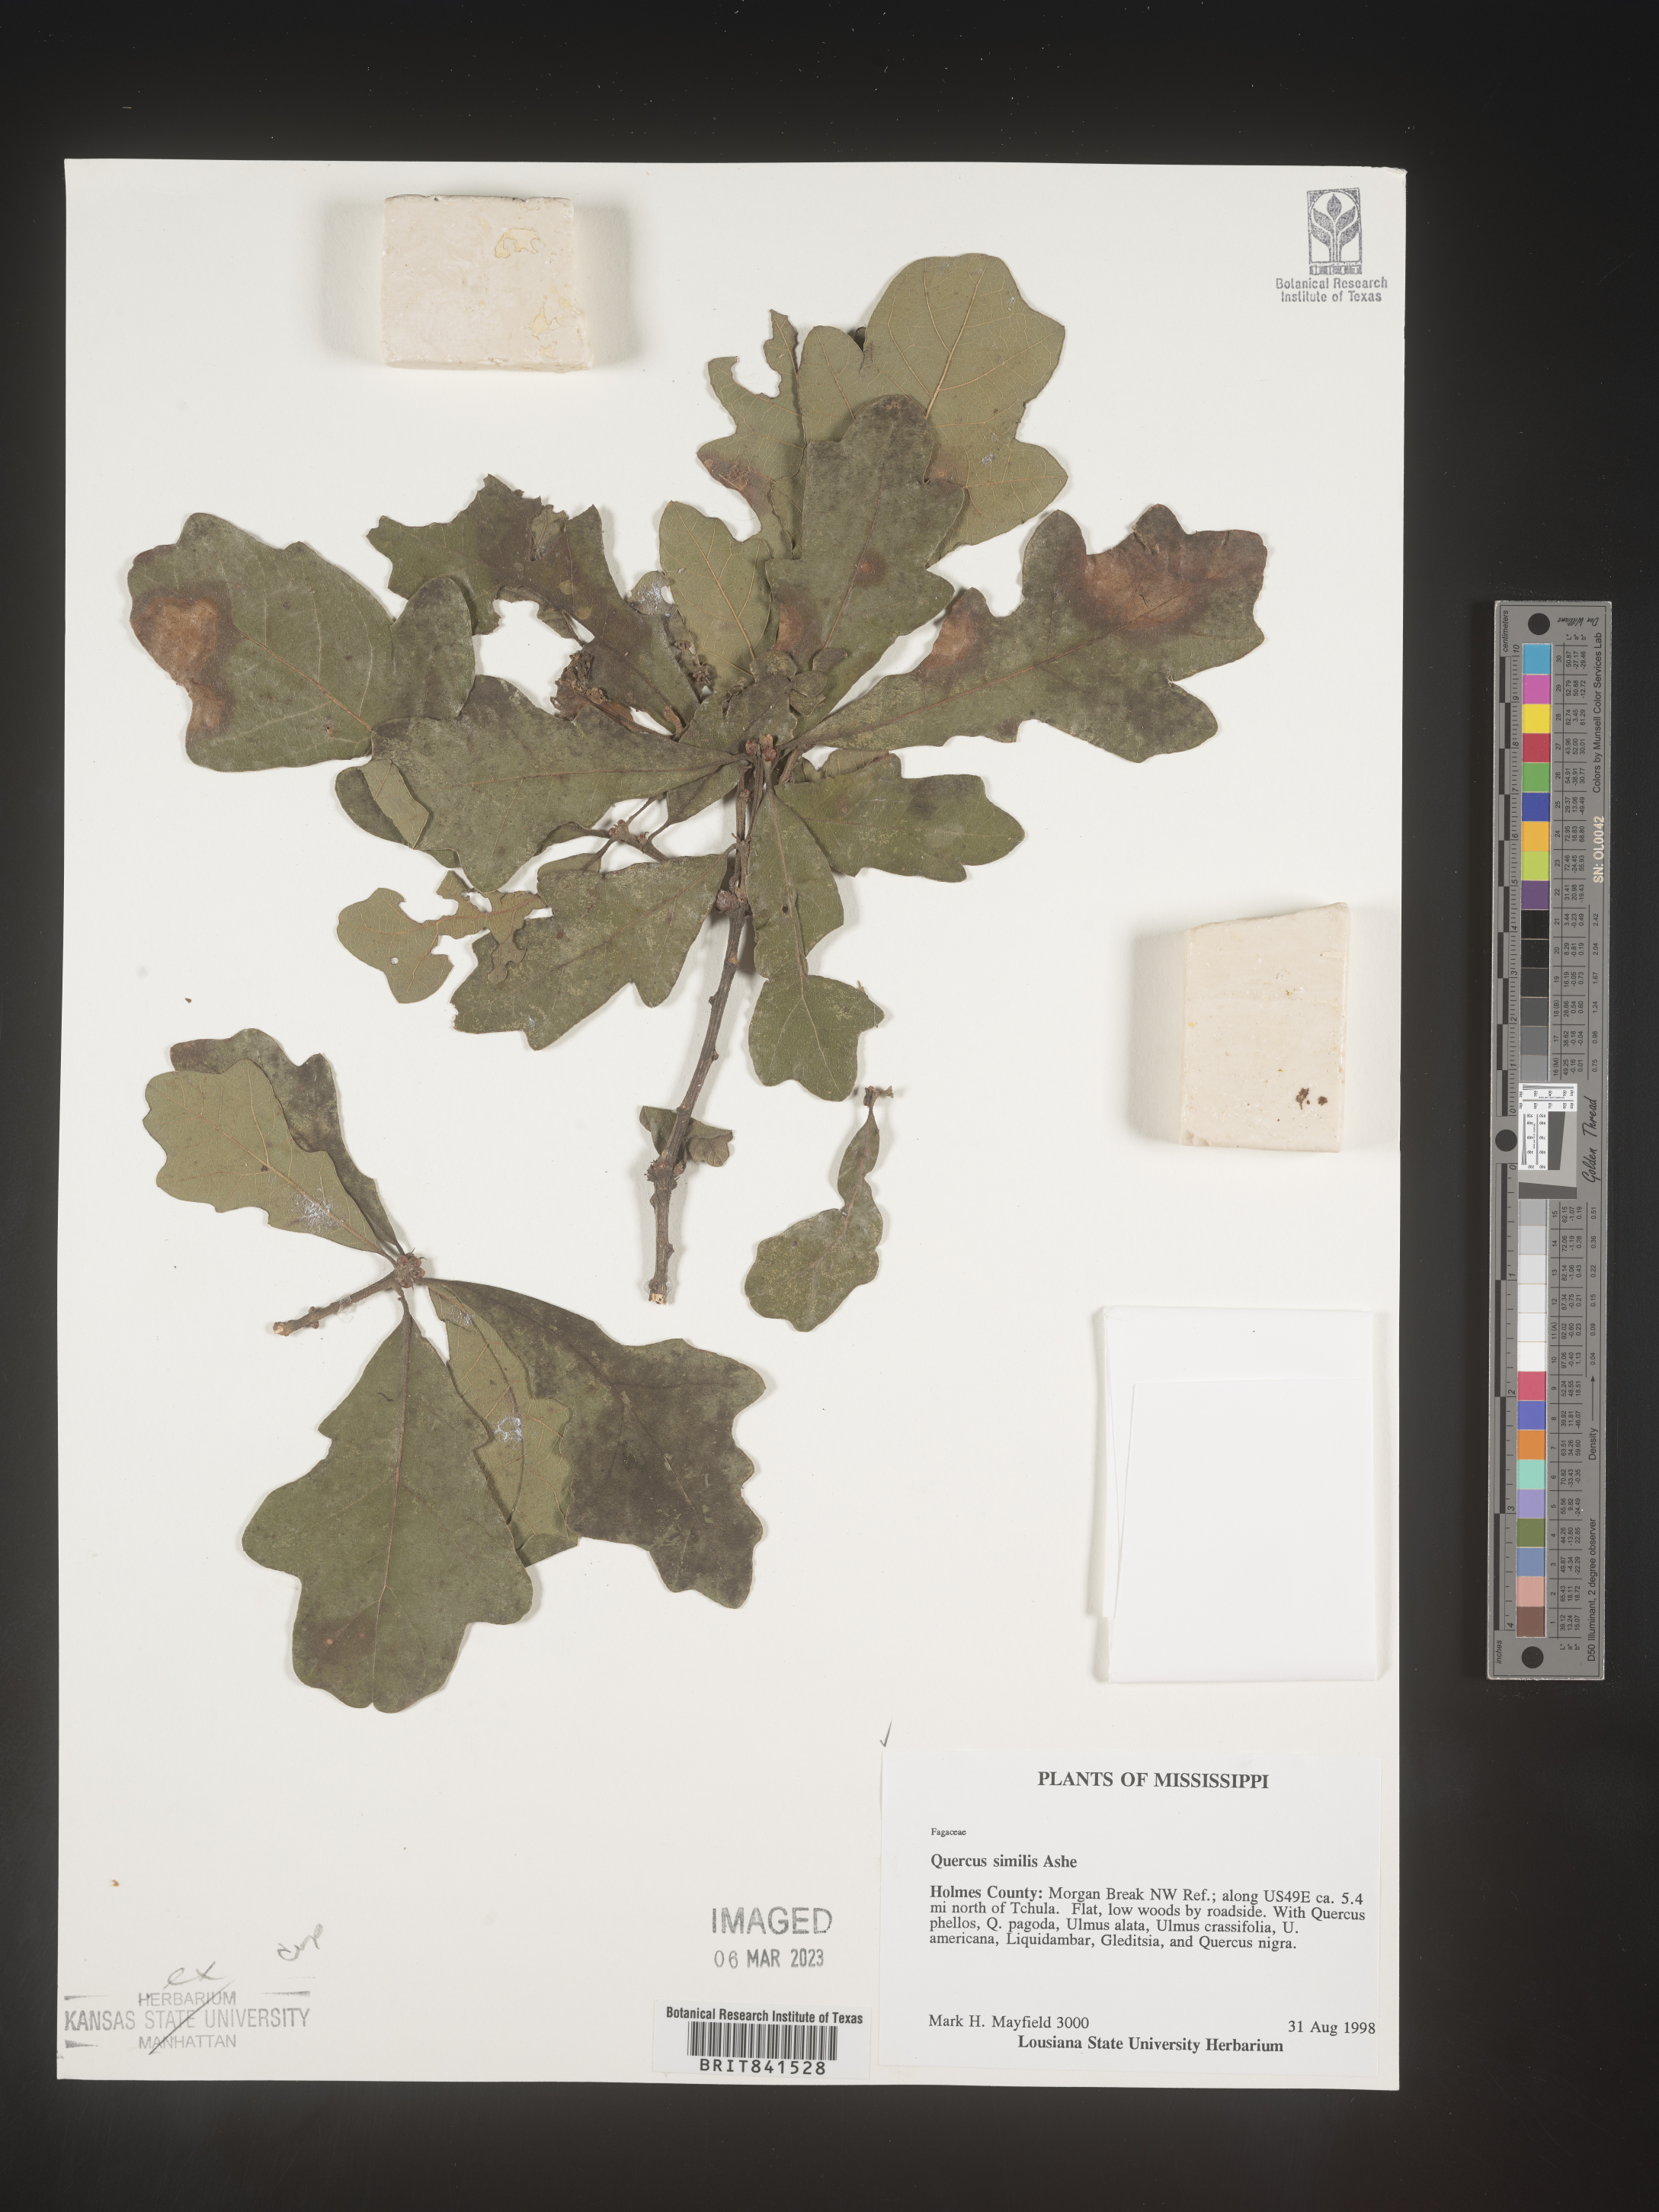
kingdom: Plantae
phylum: Tracheophyta
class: Magnoliopsida
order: Fagales
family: Fagaceae
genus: Quercus
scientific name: Quercus shumardii
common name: Shumard oak
